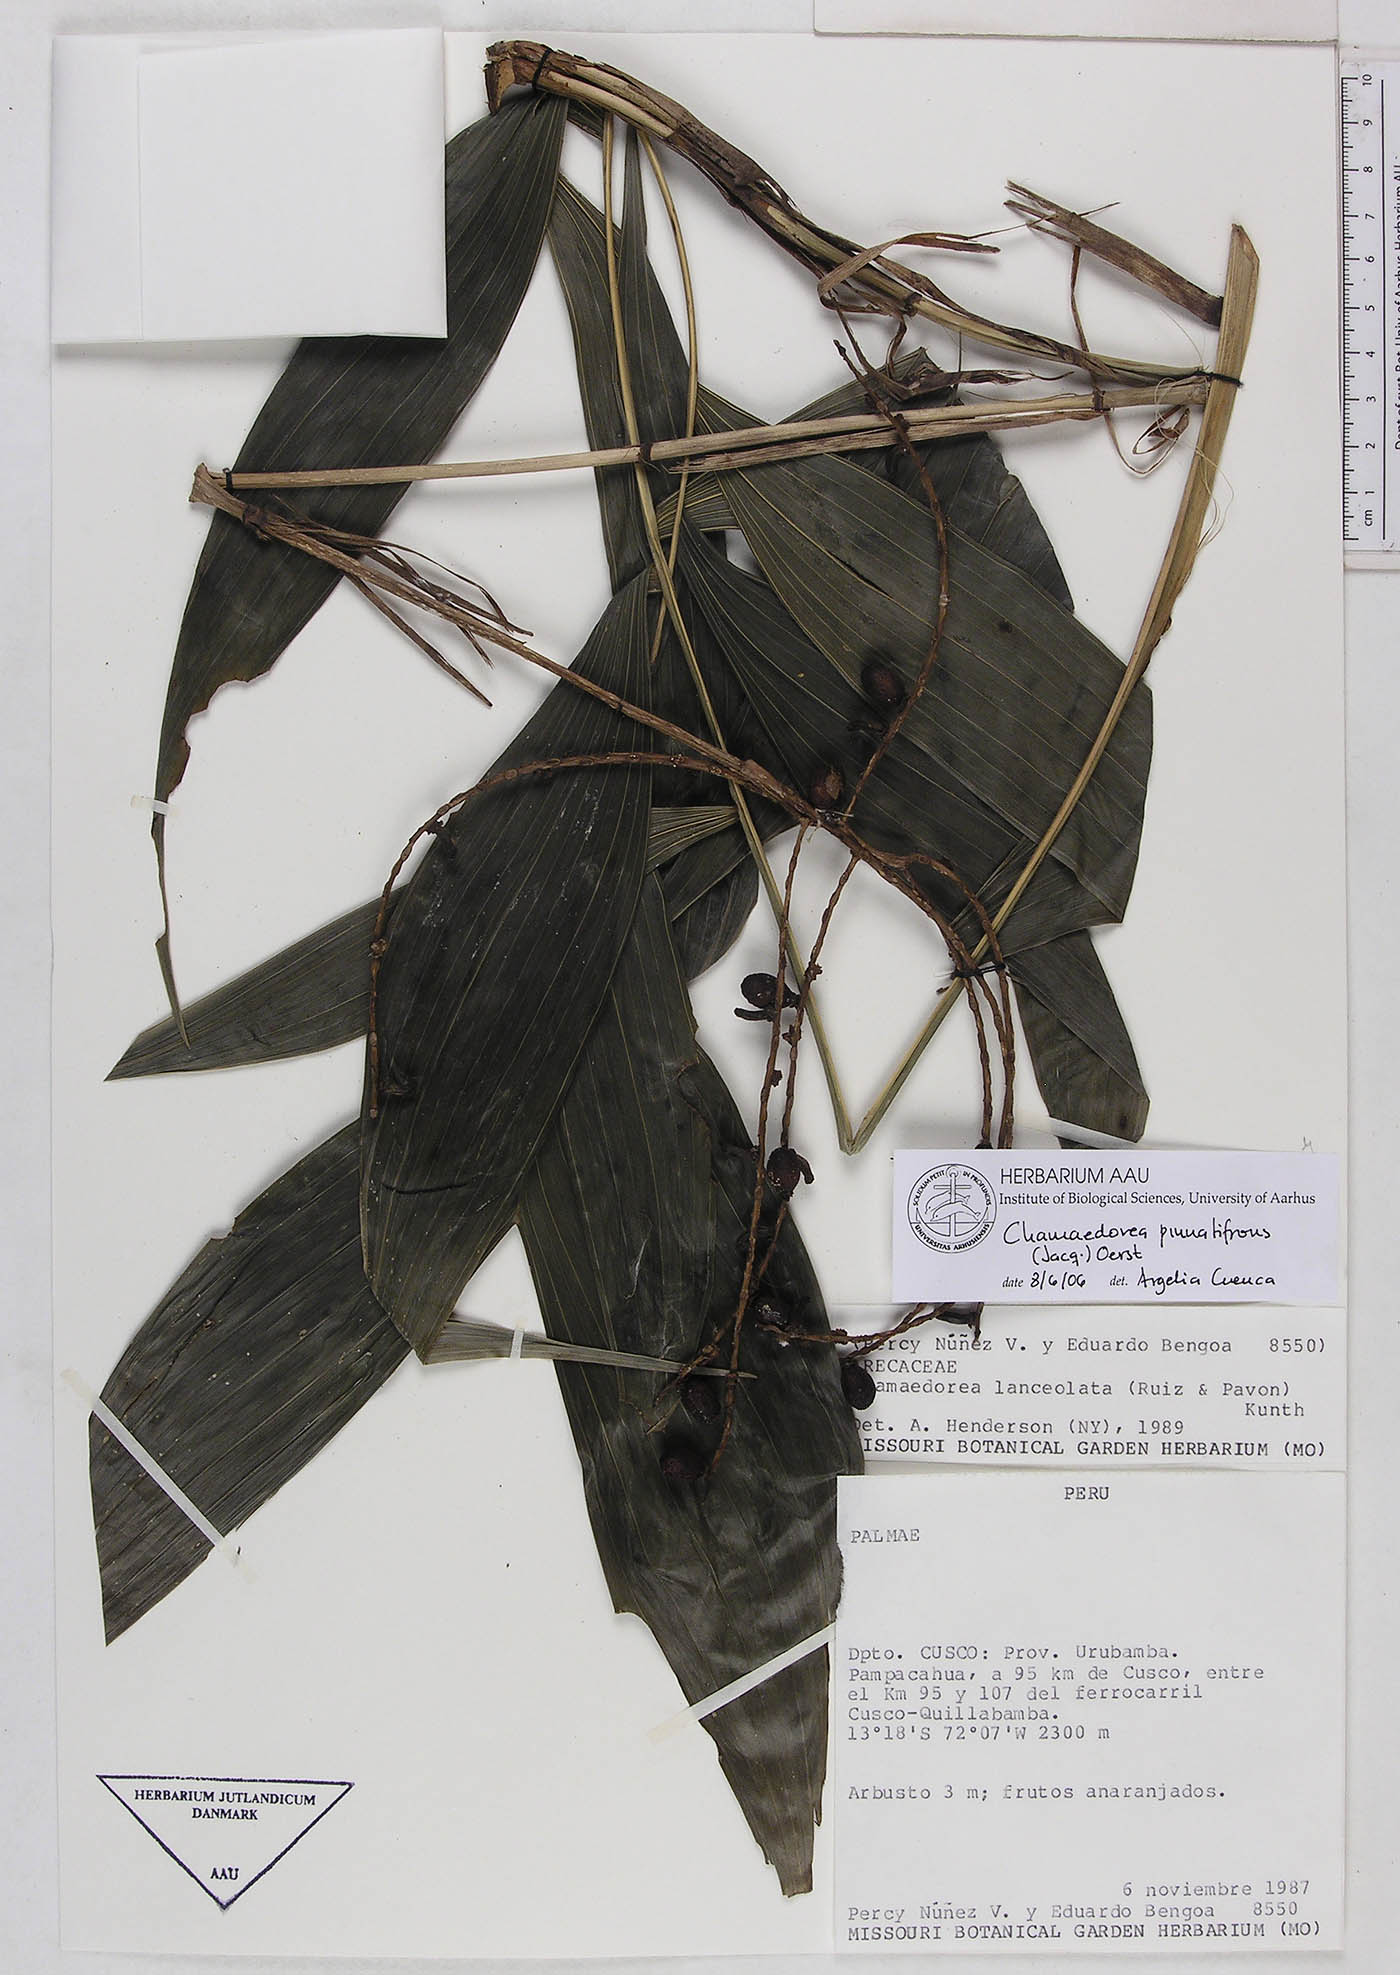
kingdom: Plantae
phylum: Tracheophyta
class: Liliopsida
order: Arecales
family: Arecaceae
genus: Chamaedorea
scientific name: Chamaedorea pinnatifrons
